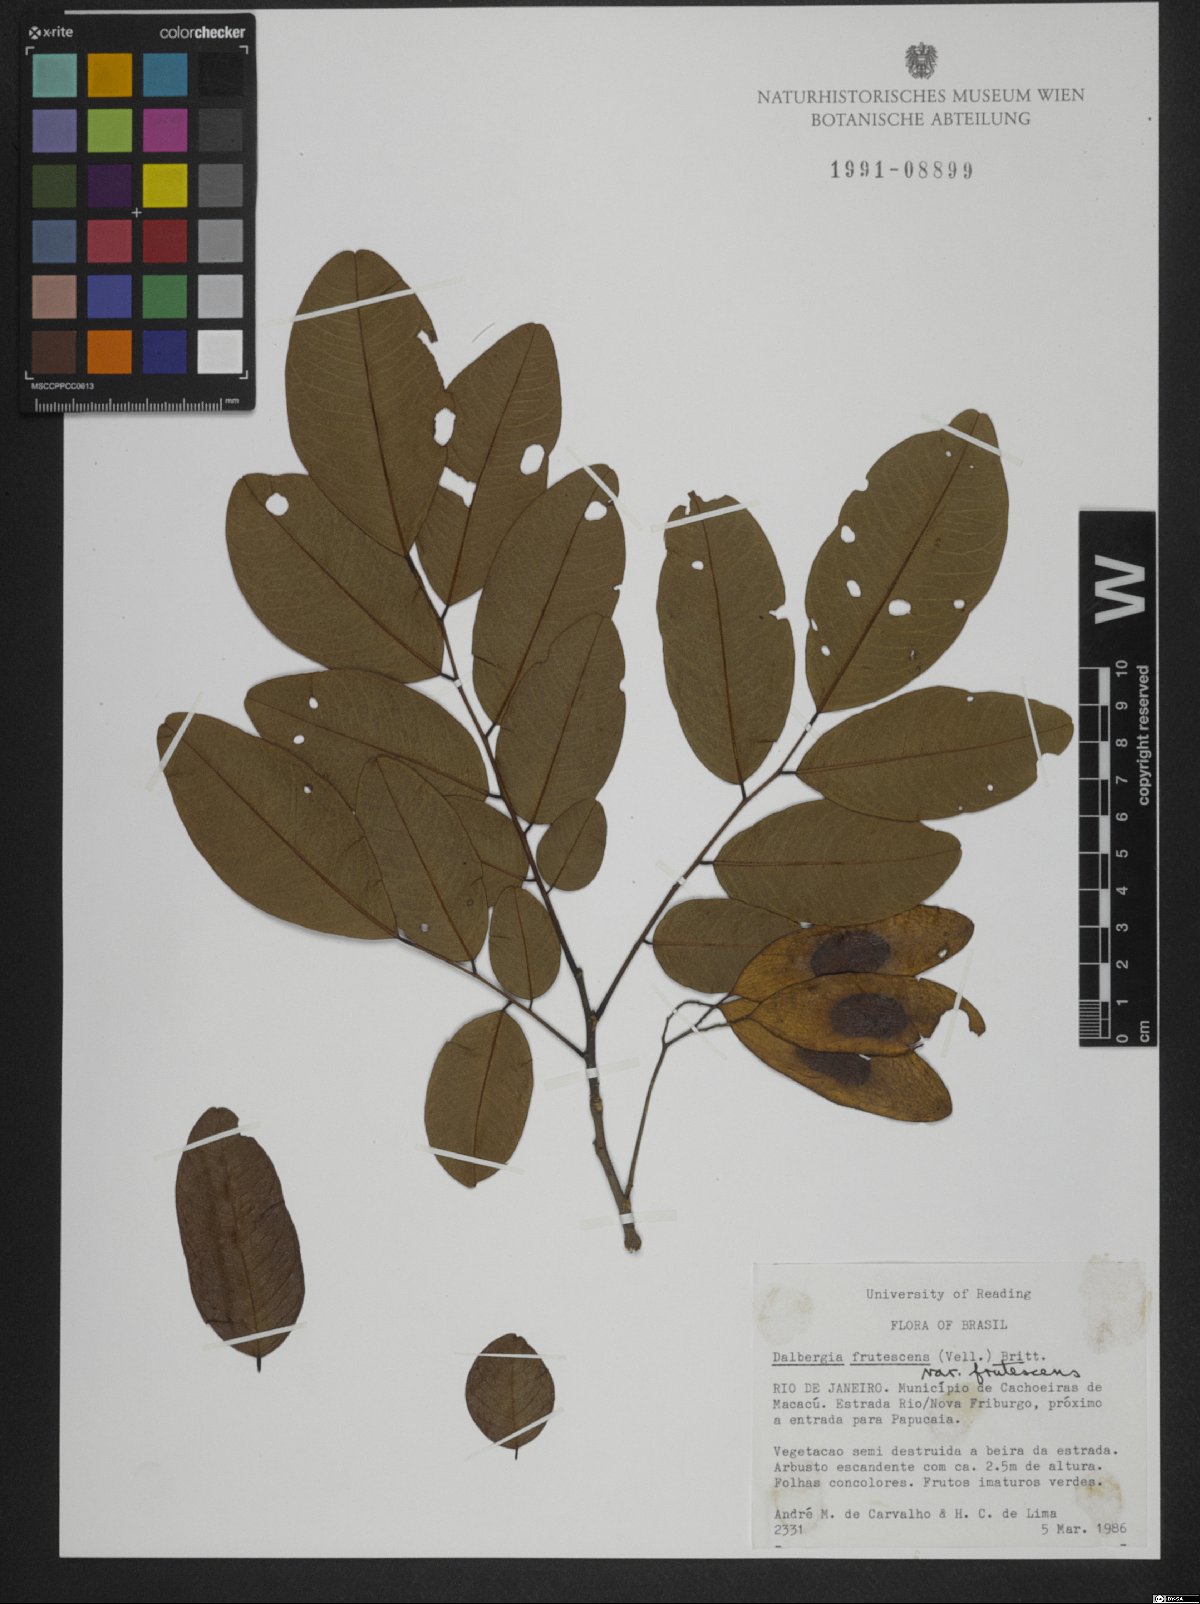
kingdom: Plantae
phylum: Tracheophyta
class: Magnoliopsida
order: Fabales
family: Fabaceae
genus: Dalbergia
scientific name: Dalbergia frutescens
